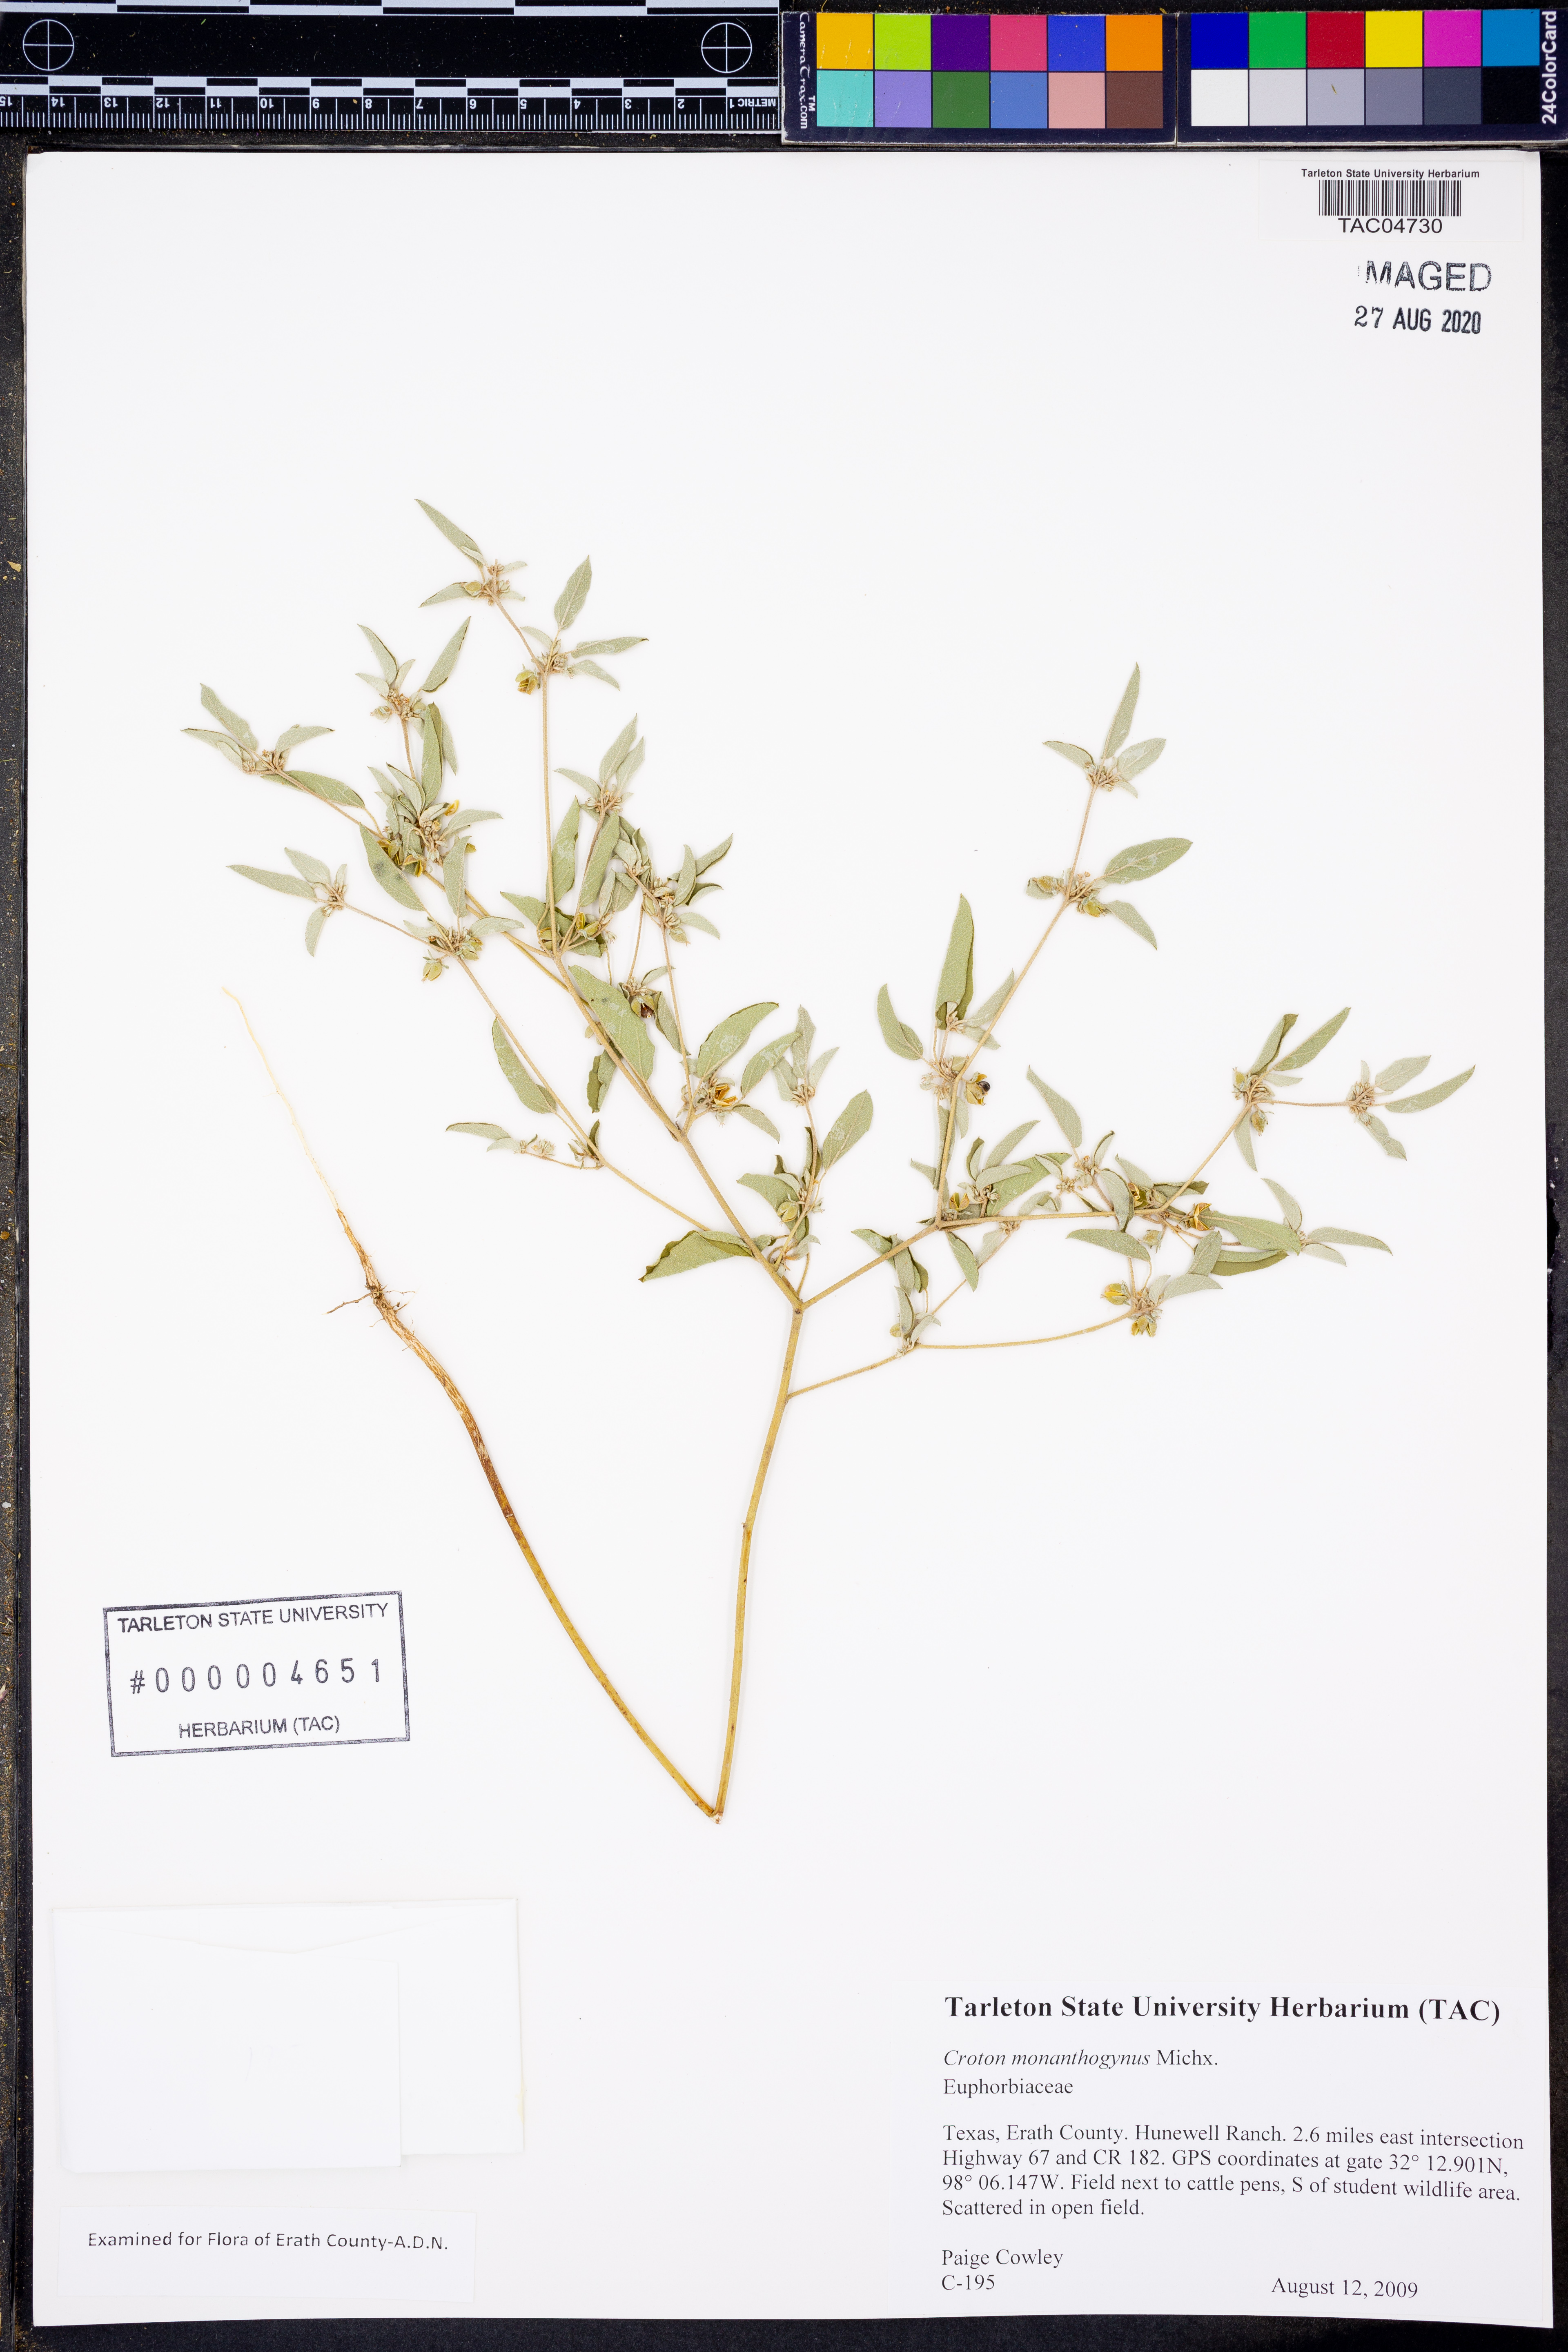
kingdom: Plantae
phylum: Tracheophyta
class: Magnoliopsida
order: Malpighiales
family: Euphorbiaceae
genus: Croton
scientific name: Croton monanthogynus
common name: One-seed croton
